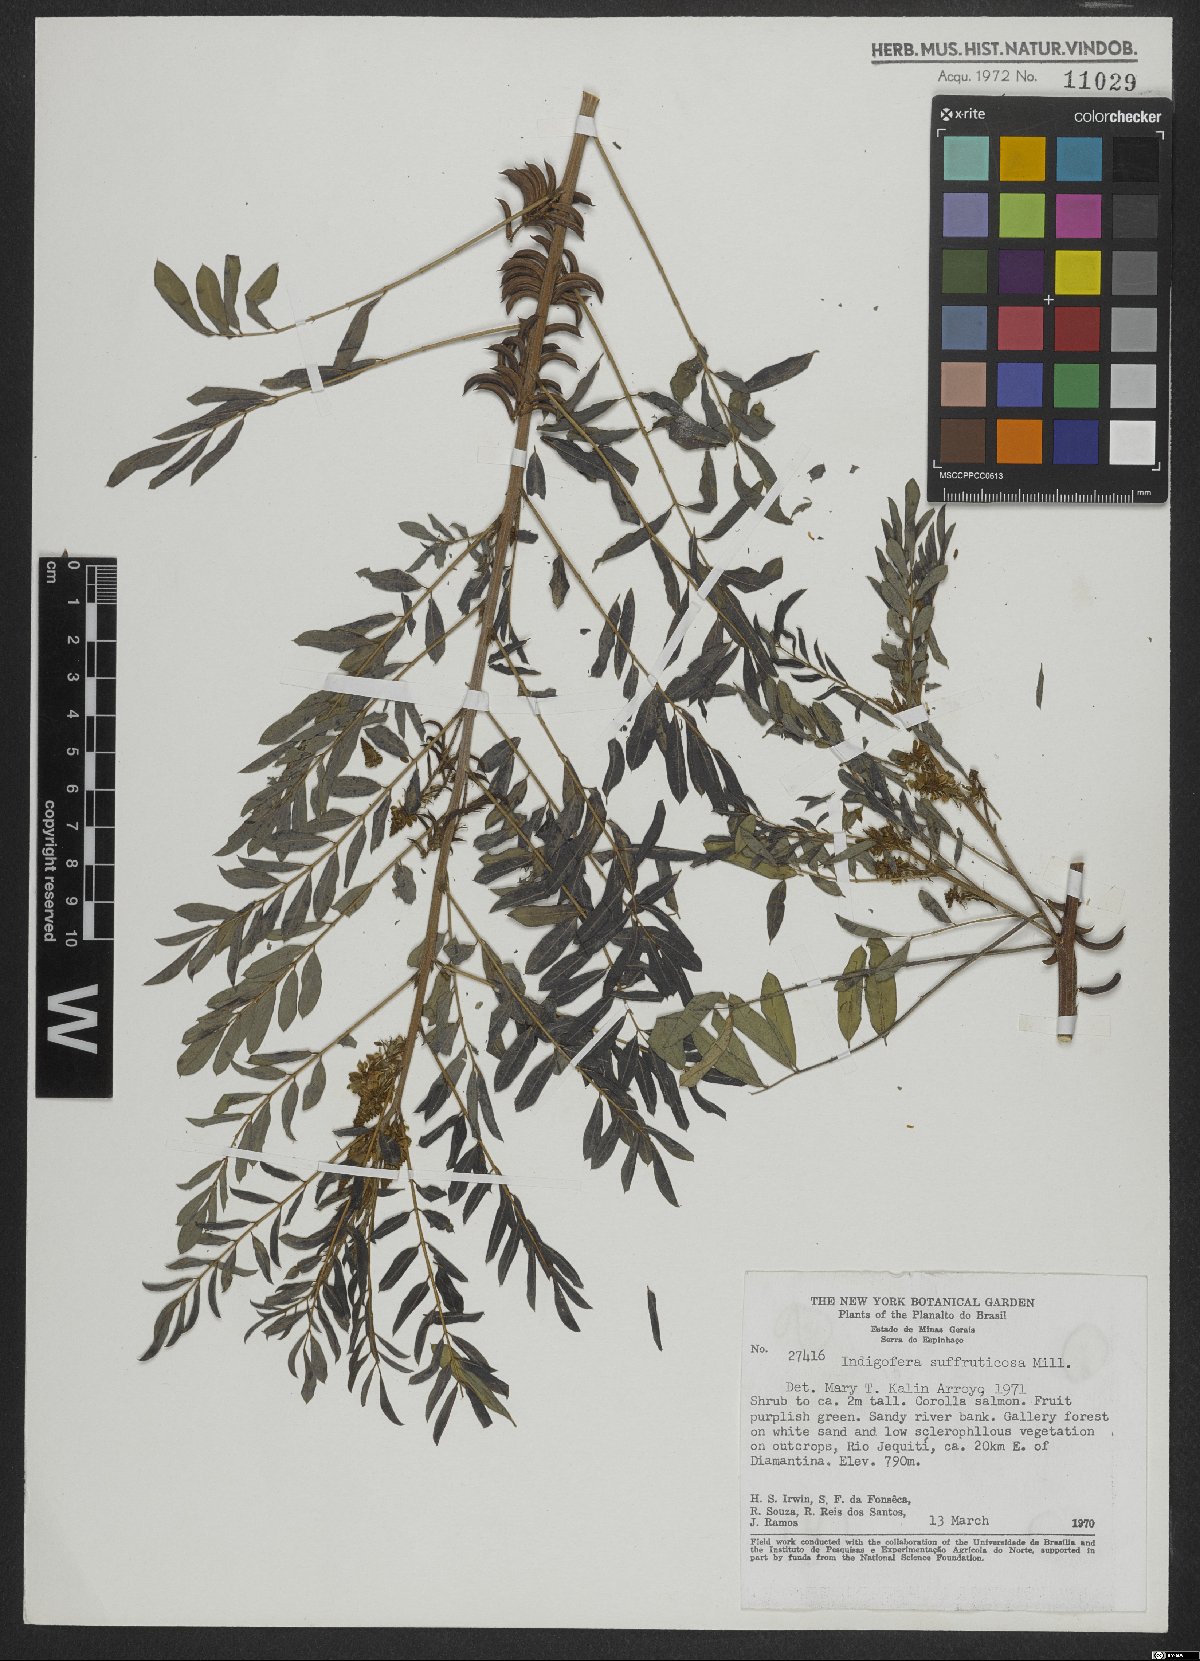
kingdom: Plantae
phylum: Tracheophyta
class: Magnoliopsida
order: Fabales
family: Fabaceae
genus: Indigofera
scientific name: Indigofera suffruticosa
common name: Anil de pasto
